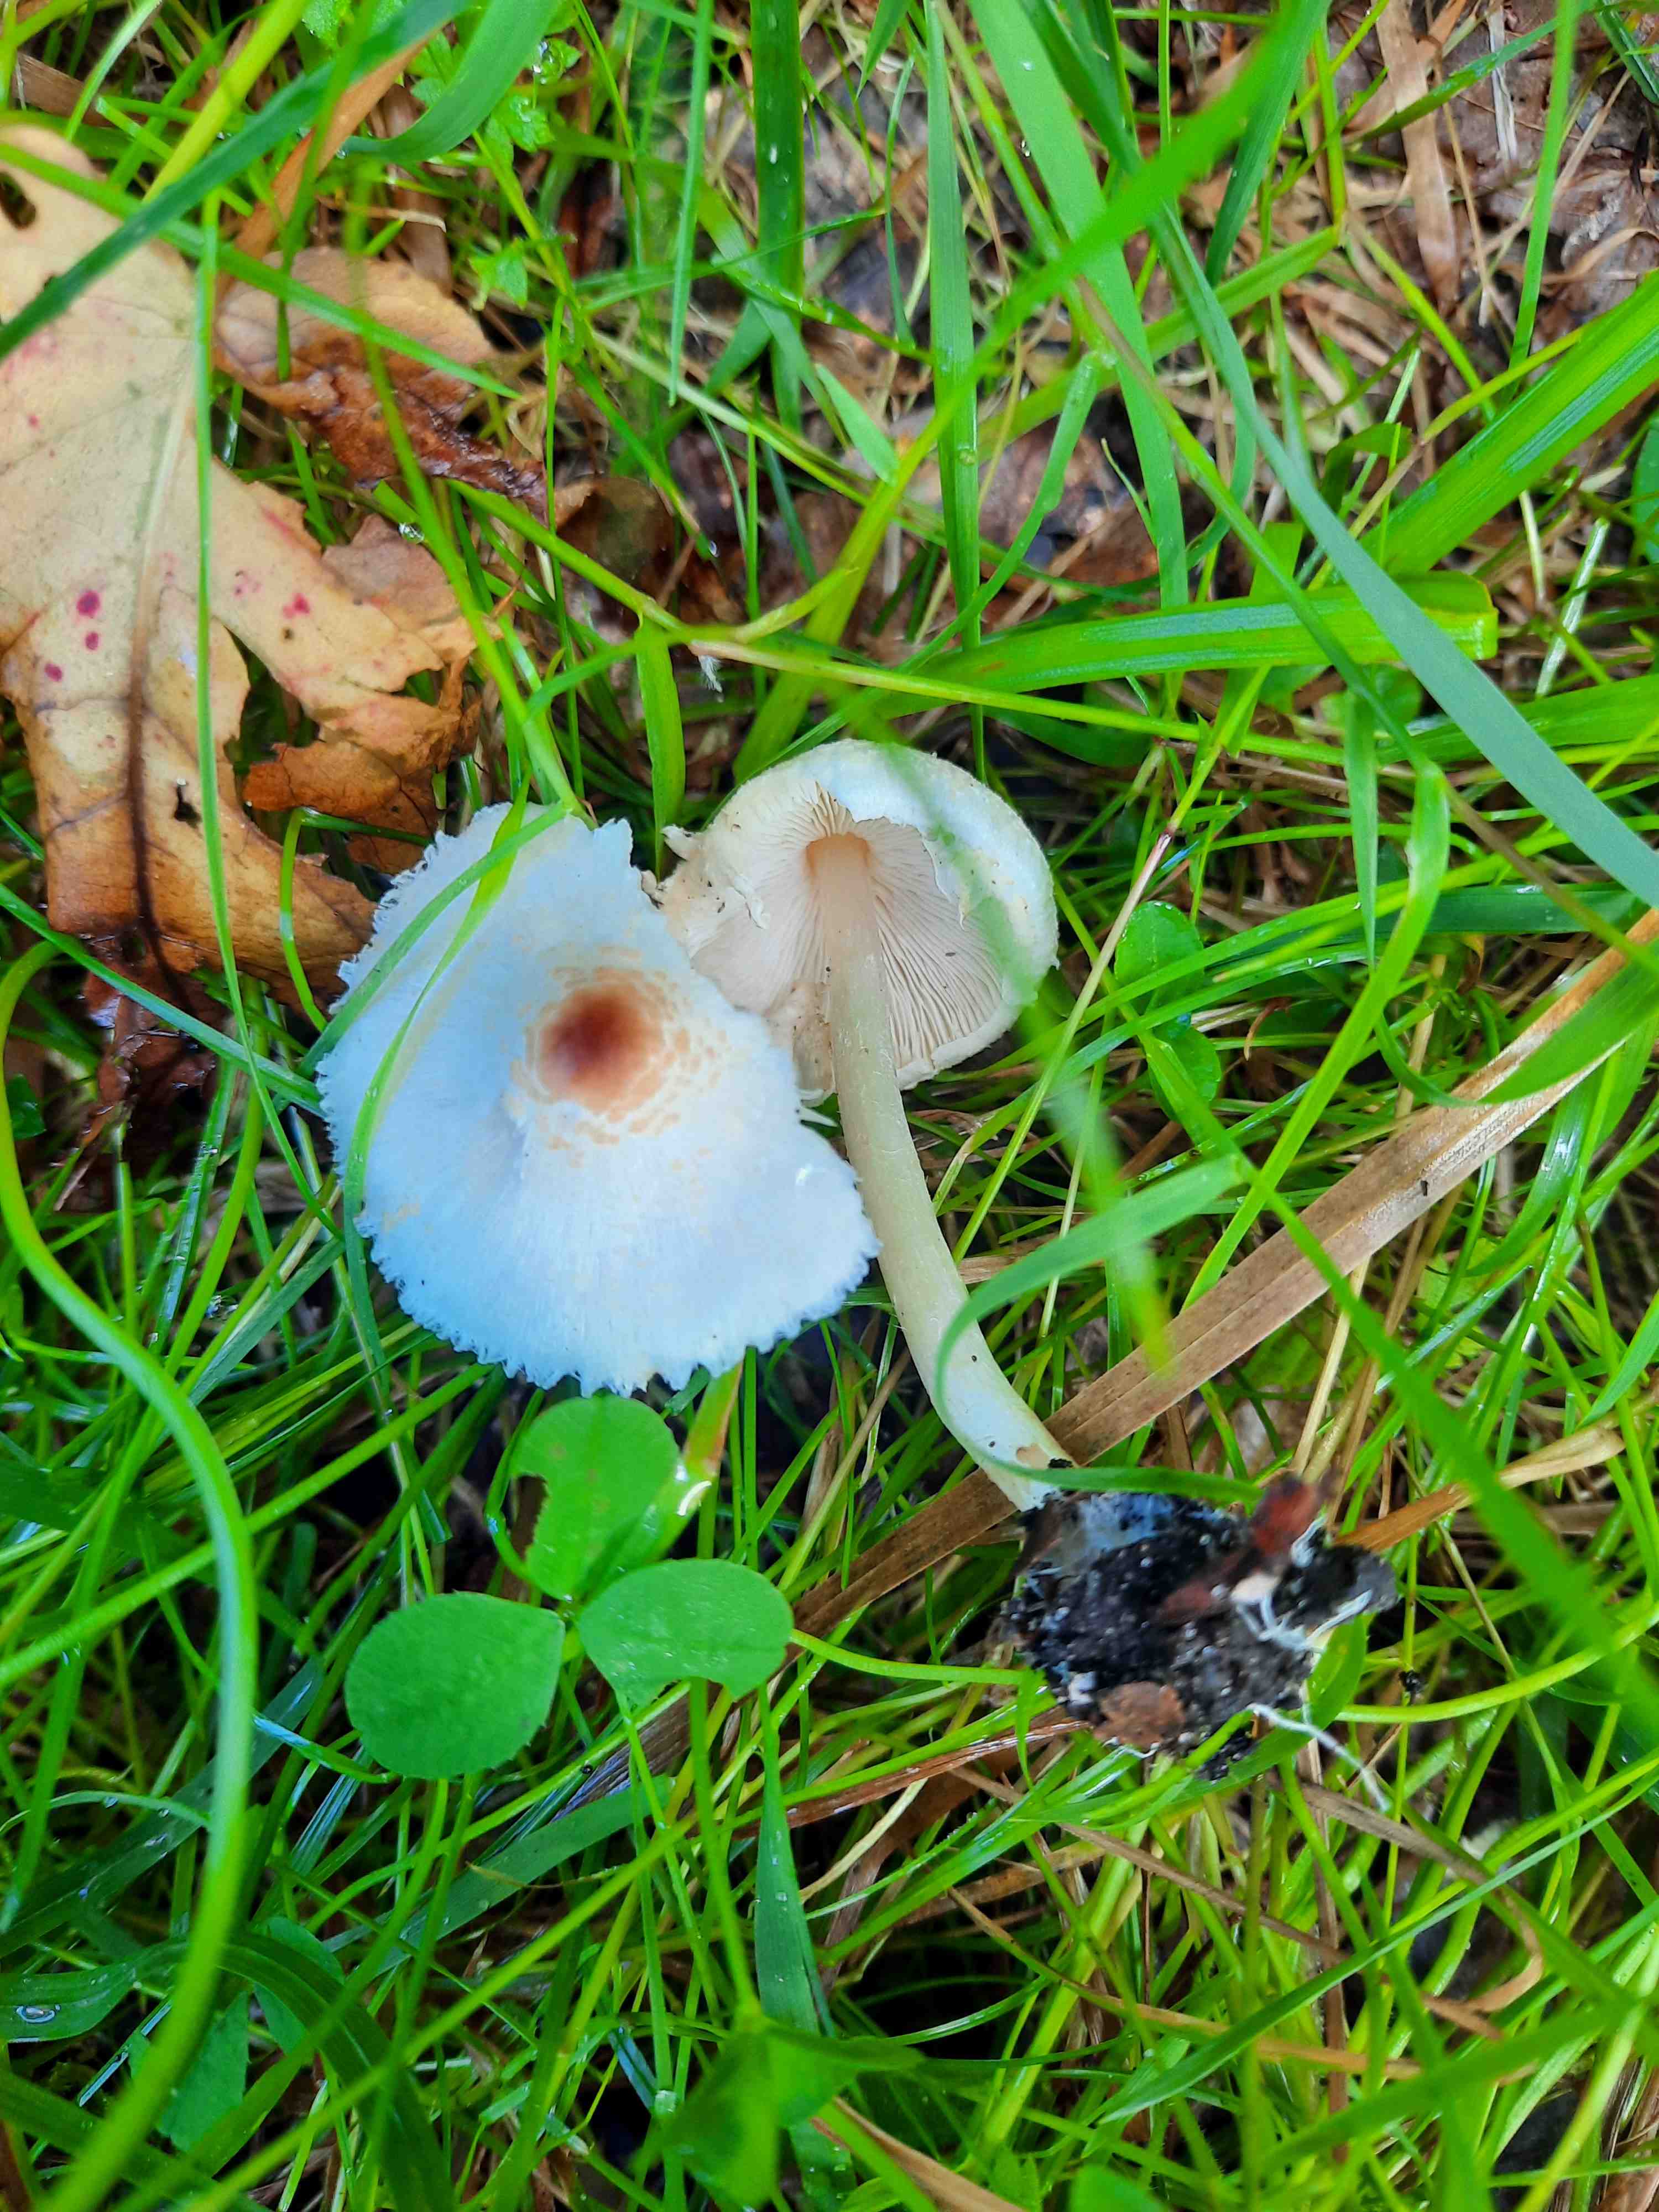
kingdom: Fungi
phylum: Basidiomycota
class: Agaricomycetes
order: Agaricales
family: Agaricaceae
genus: Lepiota
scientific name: Lepiota cristata
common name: stinkende parasolhat
